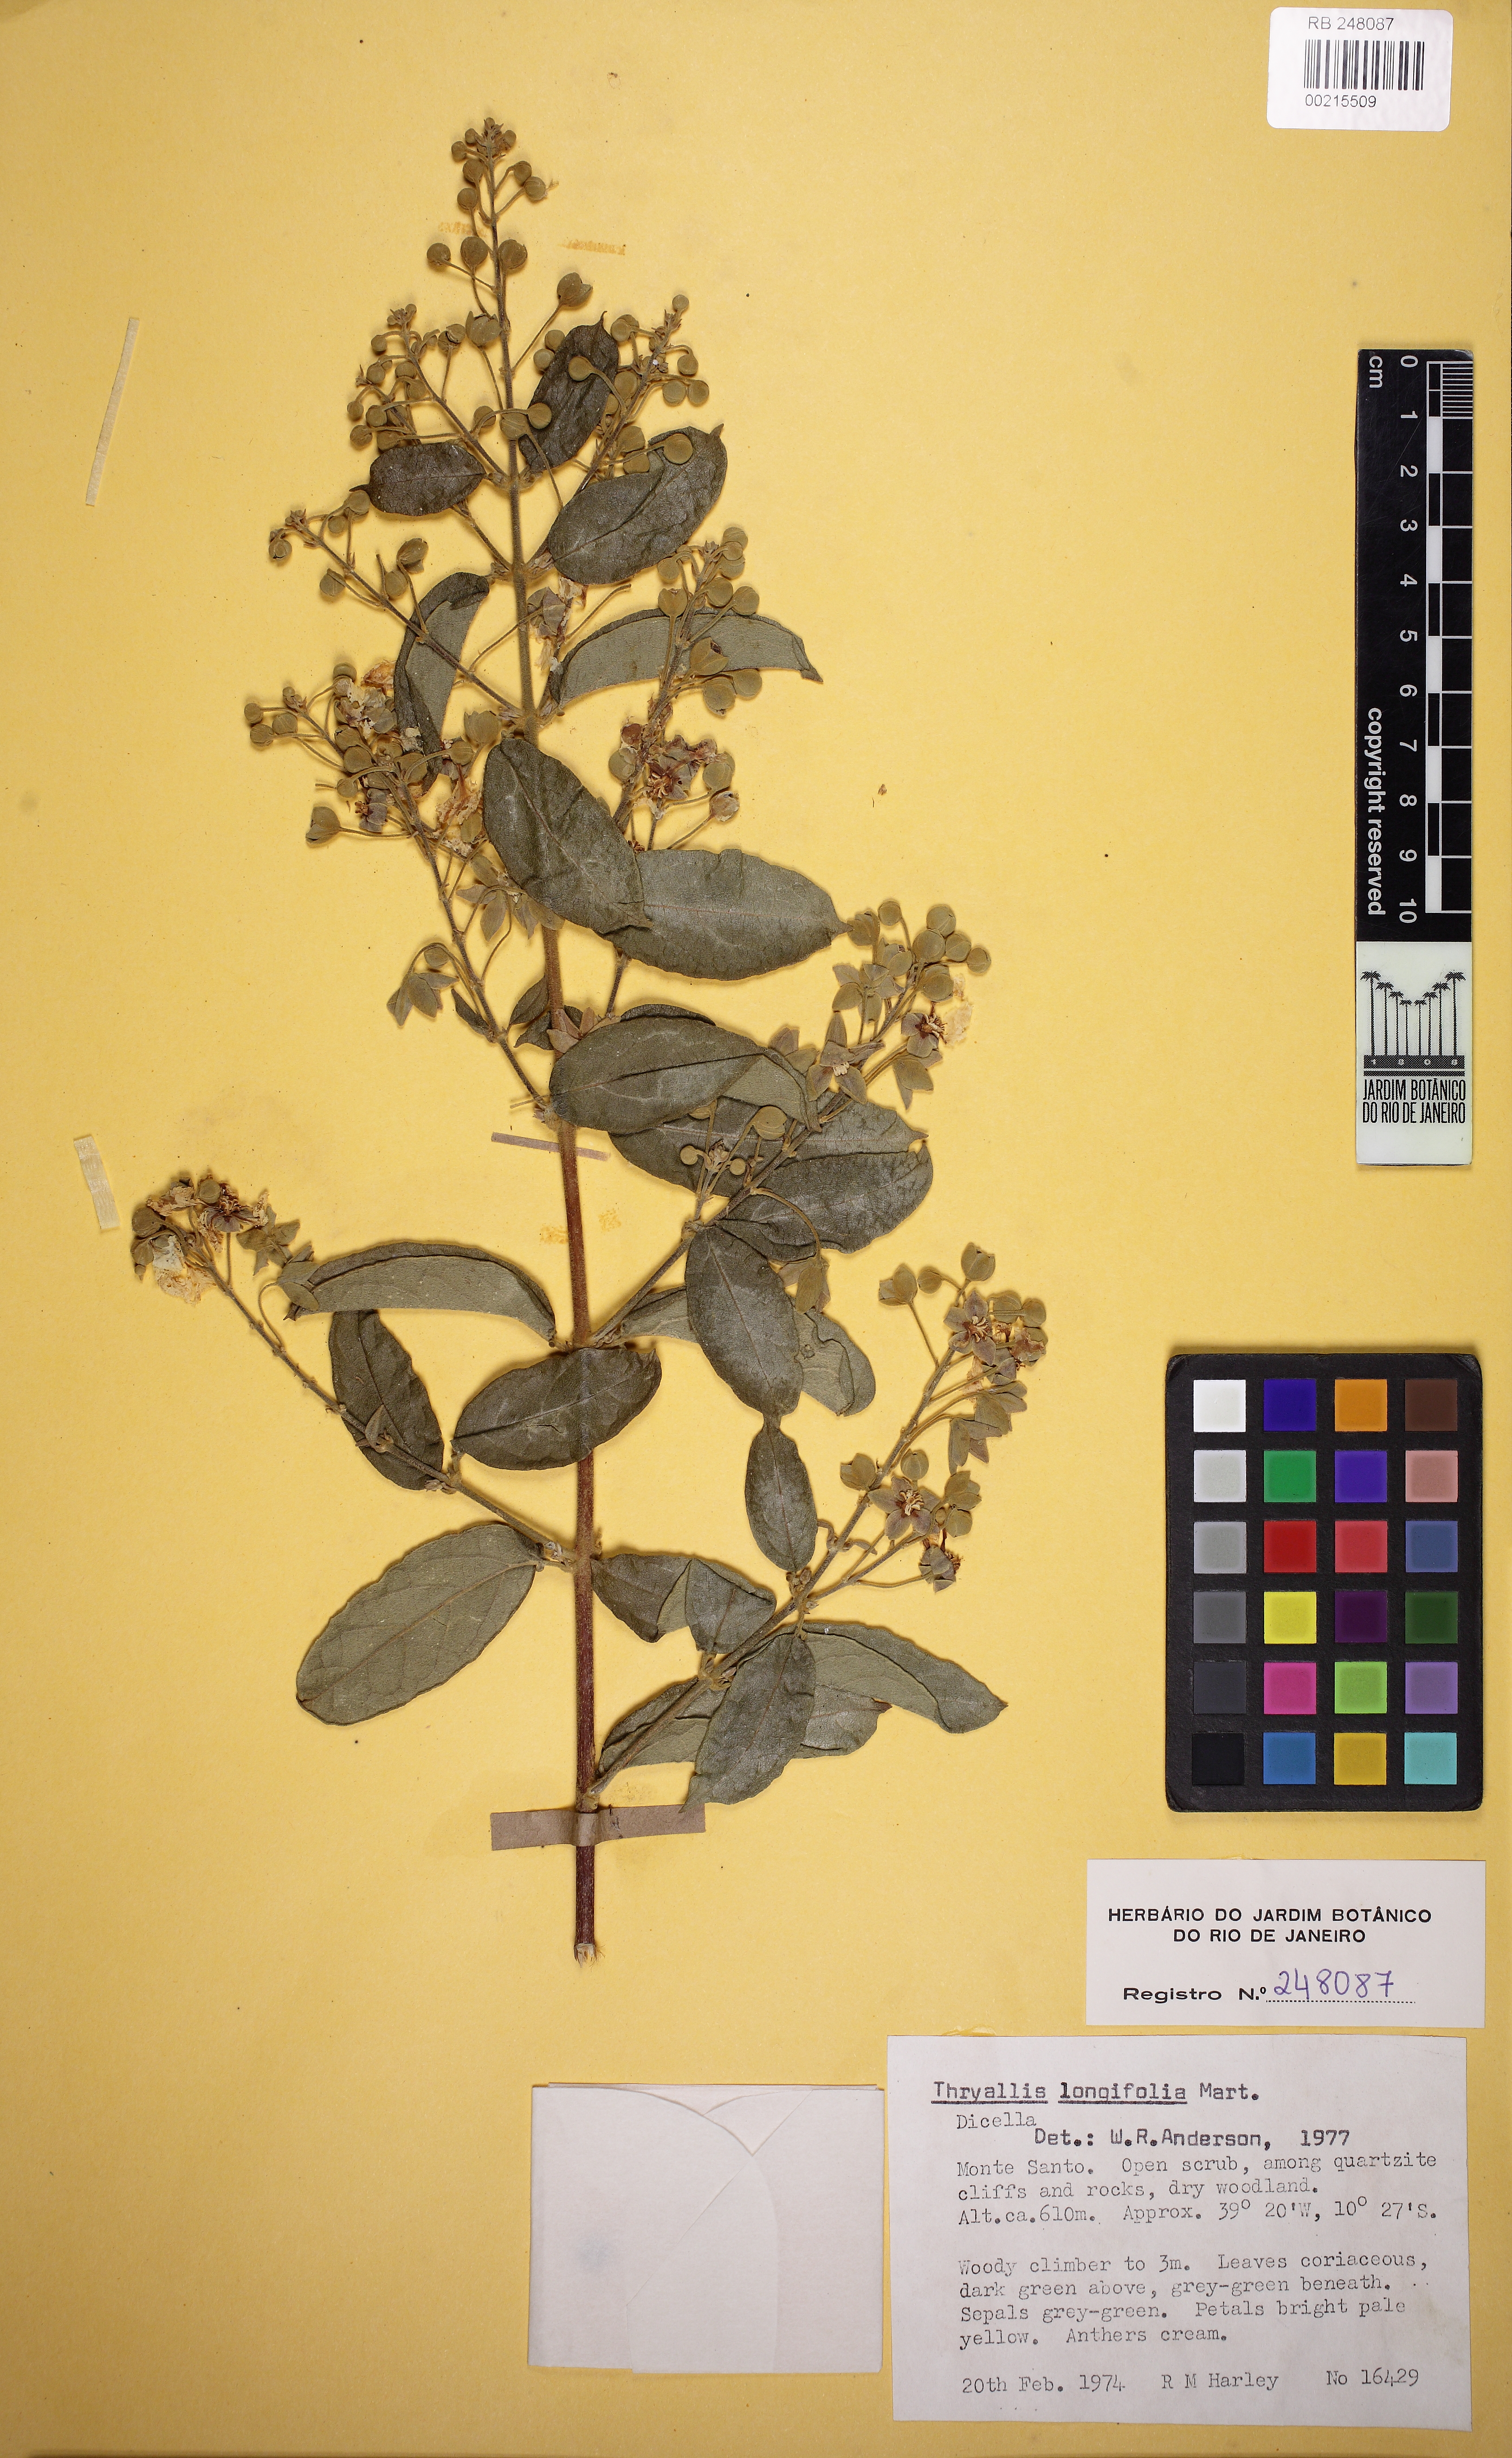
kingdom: Plantae
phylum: Tracheophyta
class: Magnoliopsida
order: Malpighiales
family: Malpighiaceae
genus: Thryallis
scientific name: Thryallis longifolia
